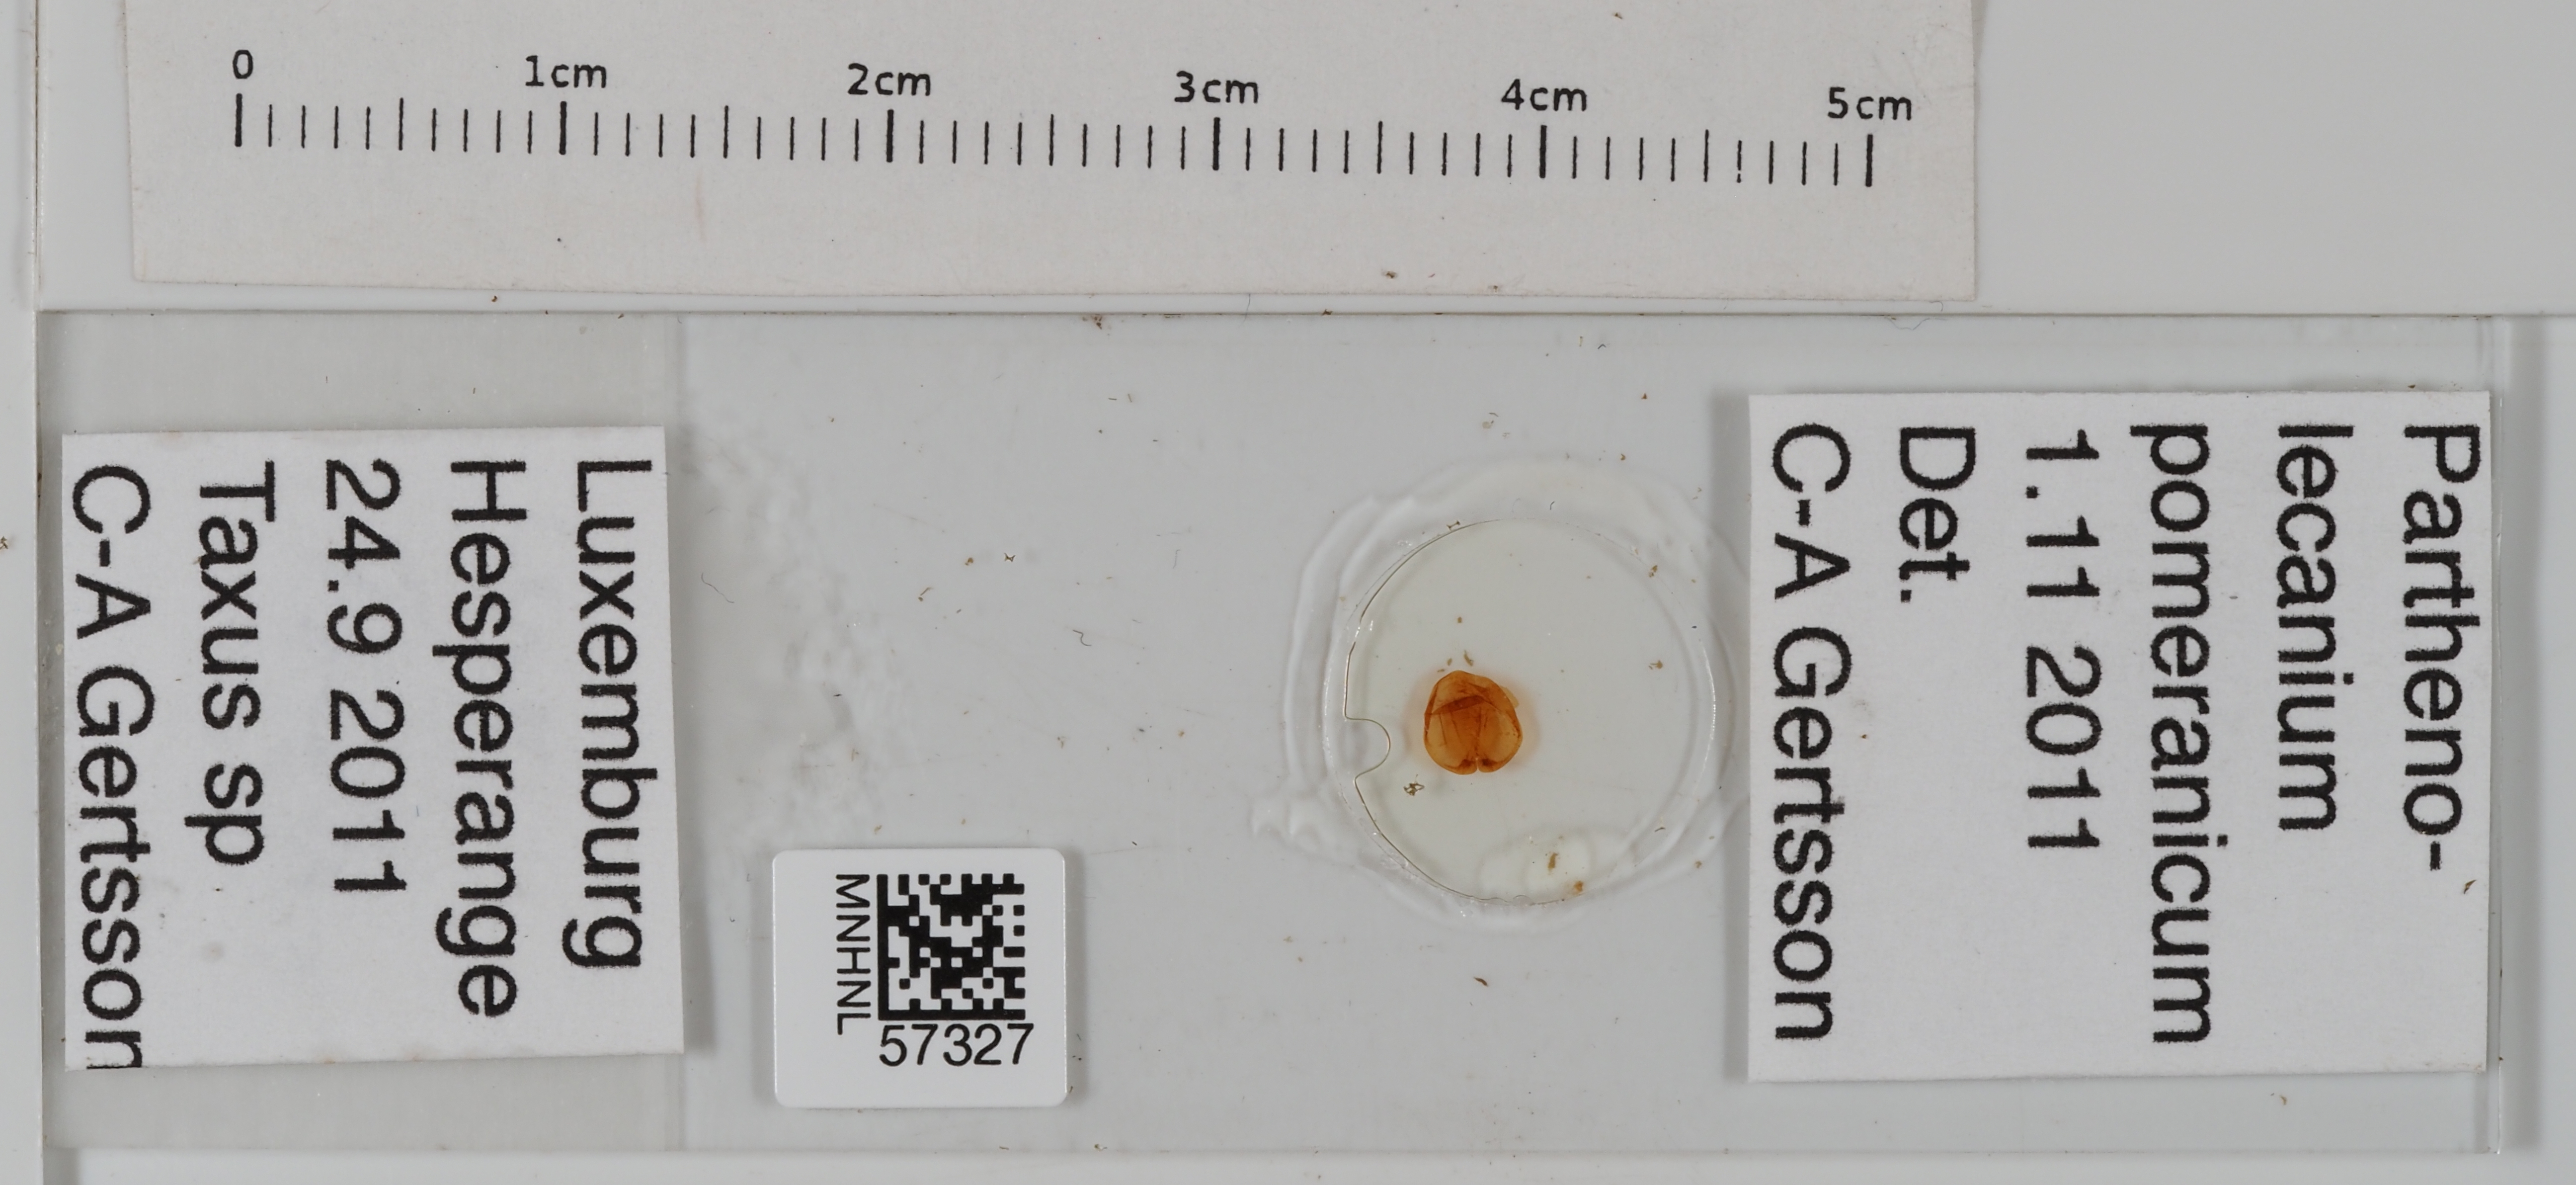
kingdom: Animalia
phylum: Arthropoda
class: Insecta
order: Hemiptera
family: Coccidae
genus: Parthenolecanium
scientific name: Parthenolecanium pomeranicum
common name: Yew scale
